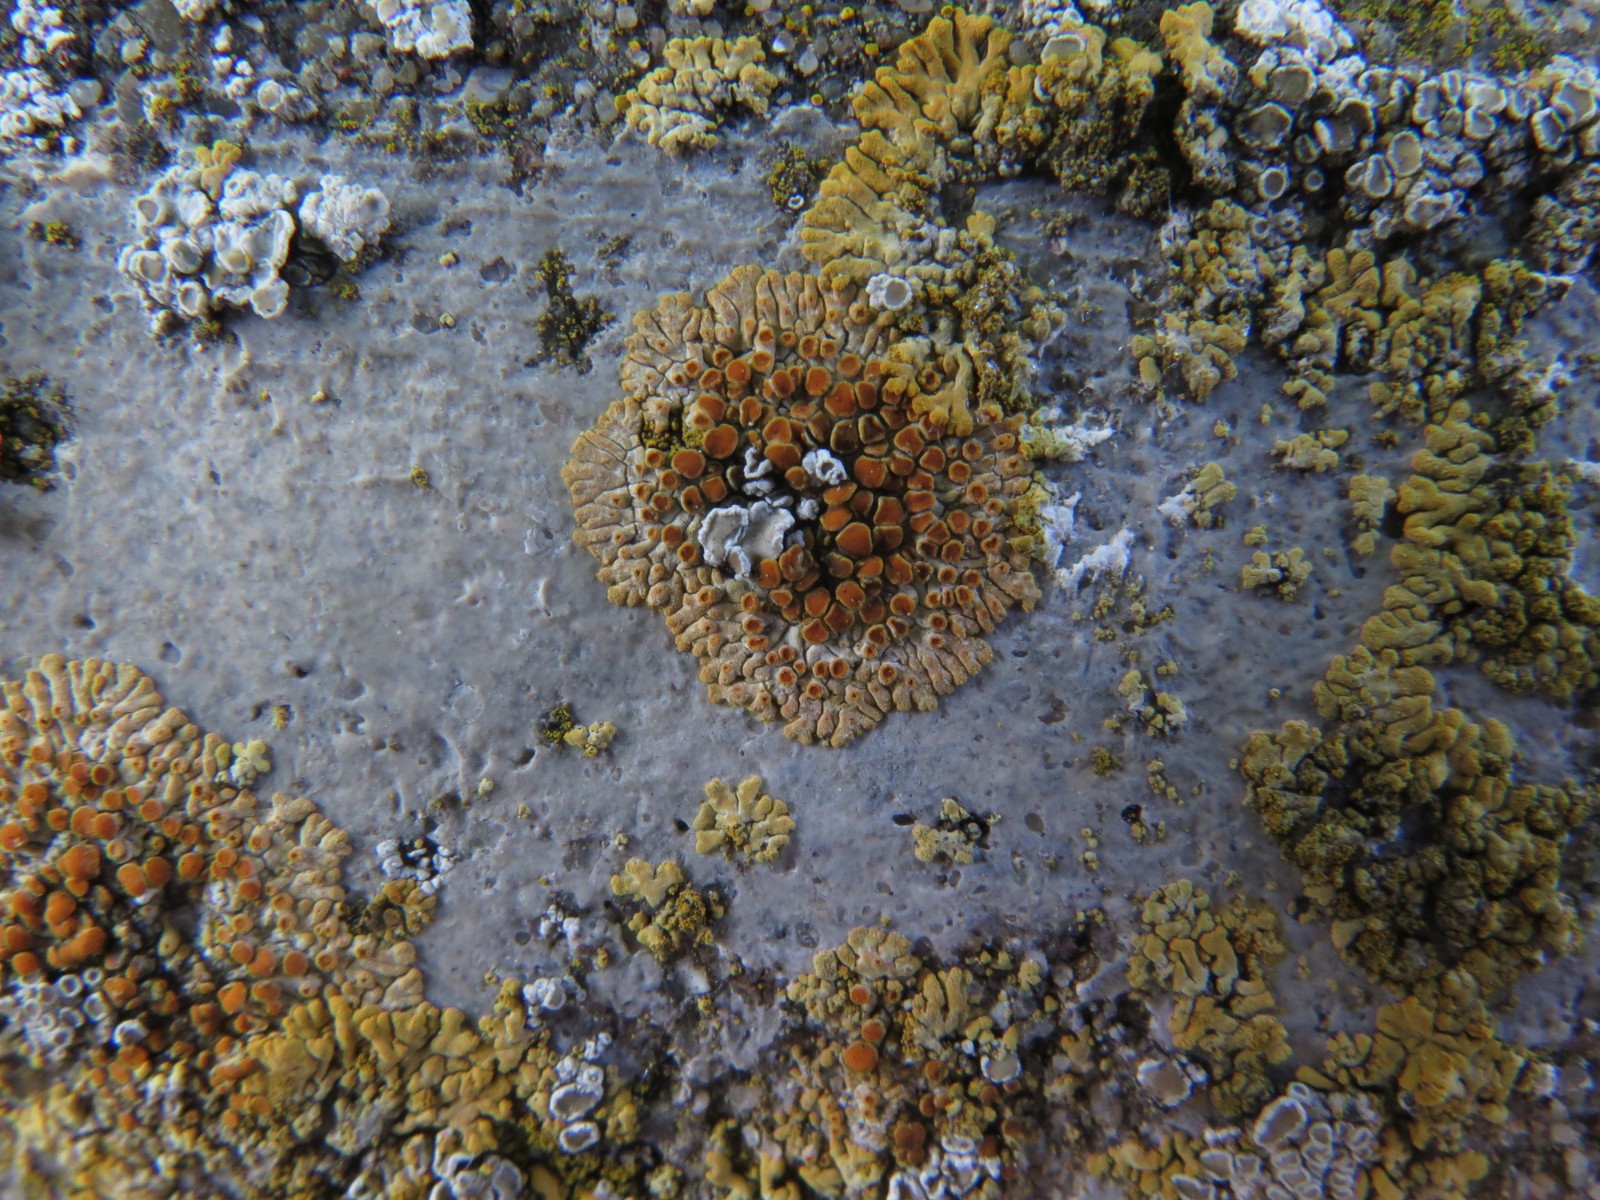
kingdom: Fungi
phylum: Ascomycota
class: Lecanoromycetes
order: Teloschistales
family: Teloschistaceae
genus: Calogaya
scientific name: Calogaya pusilla
